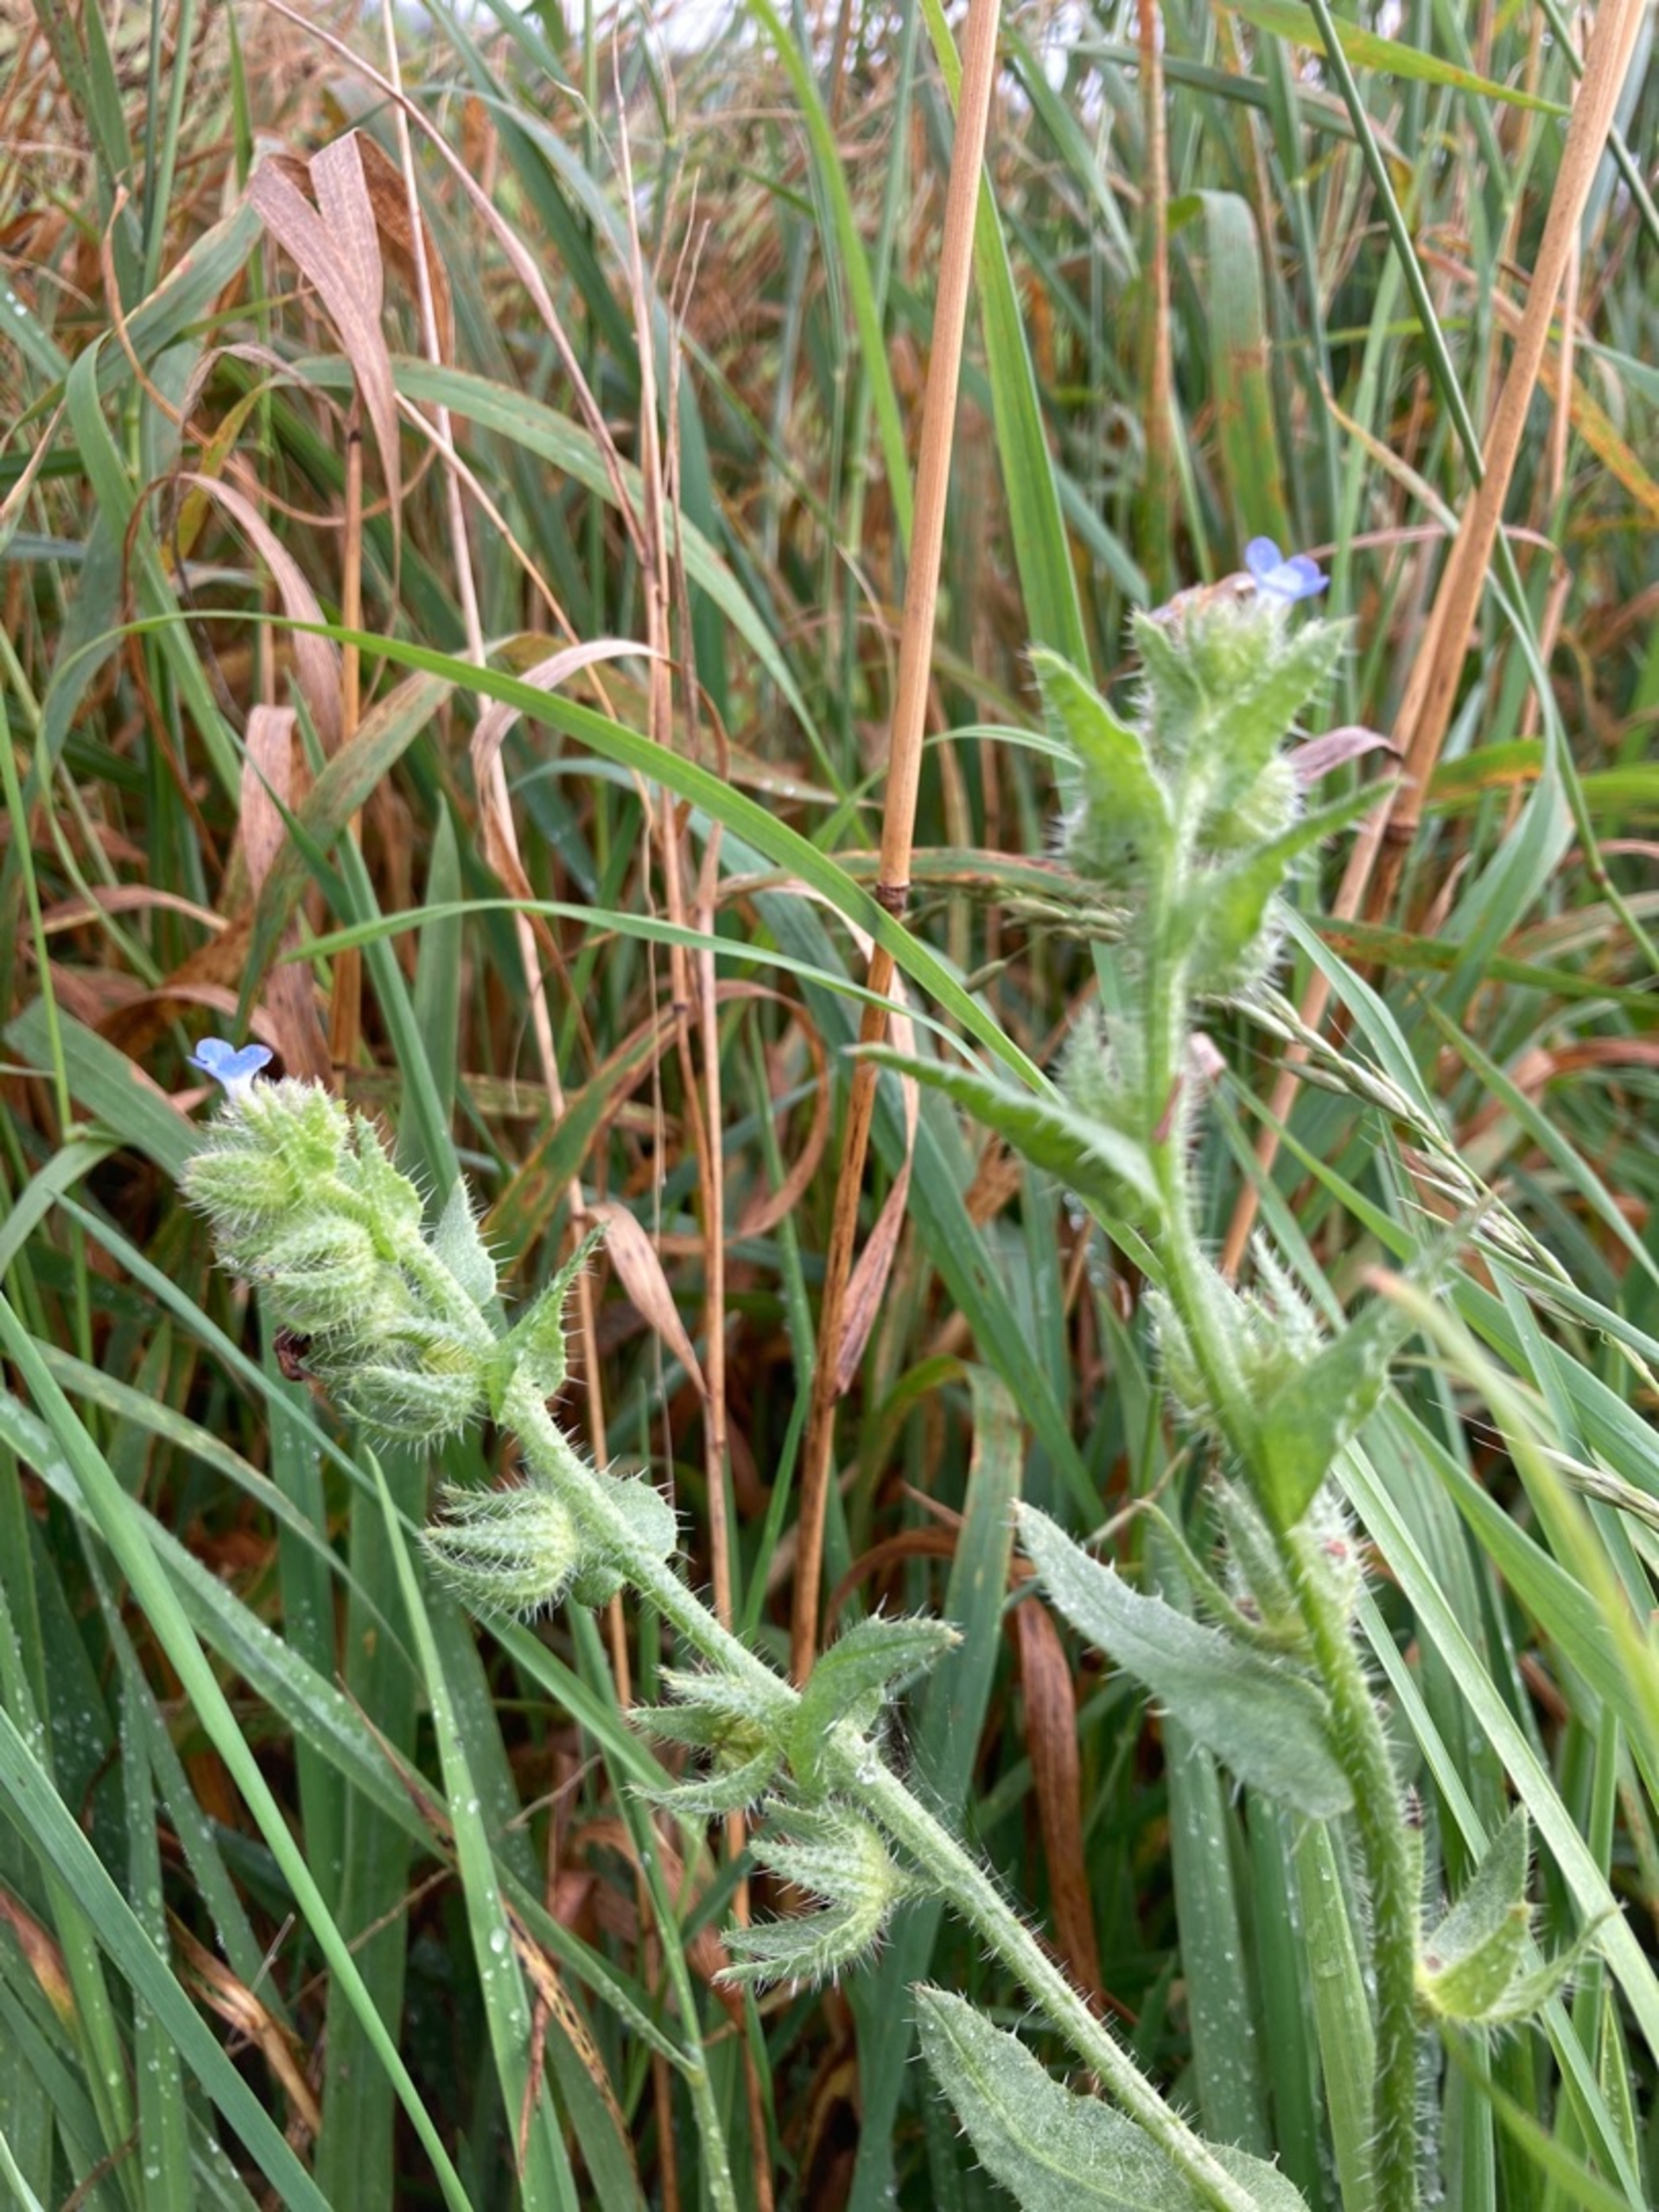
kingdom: Plantae
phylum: Tracheophyta
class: Magnoliopsida
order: Boraginales
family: Boraginaceae
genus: Lycopsis
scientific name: Lycopsis arvensis
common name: Krumhals
